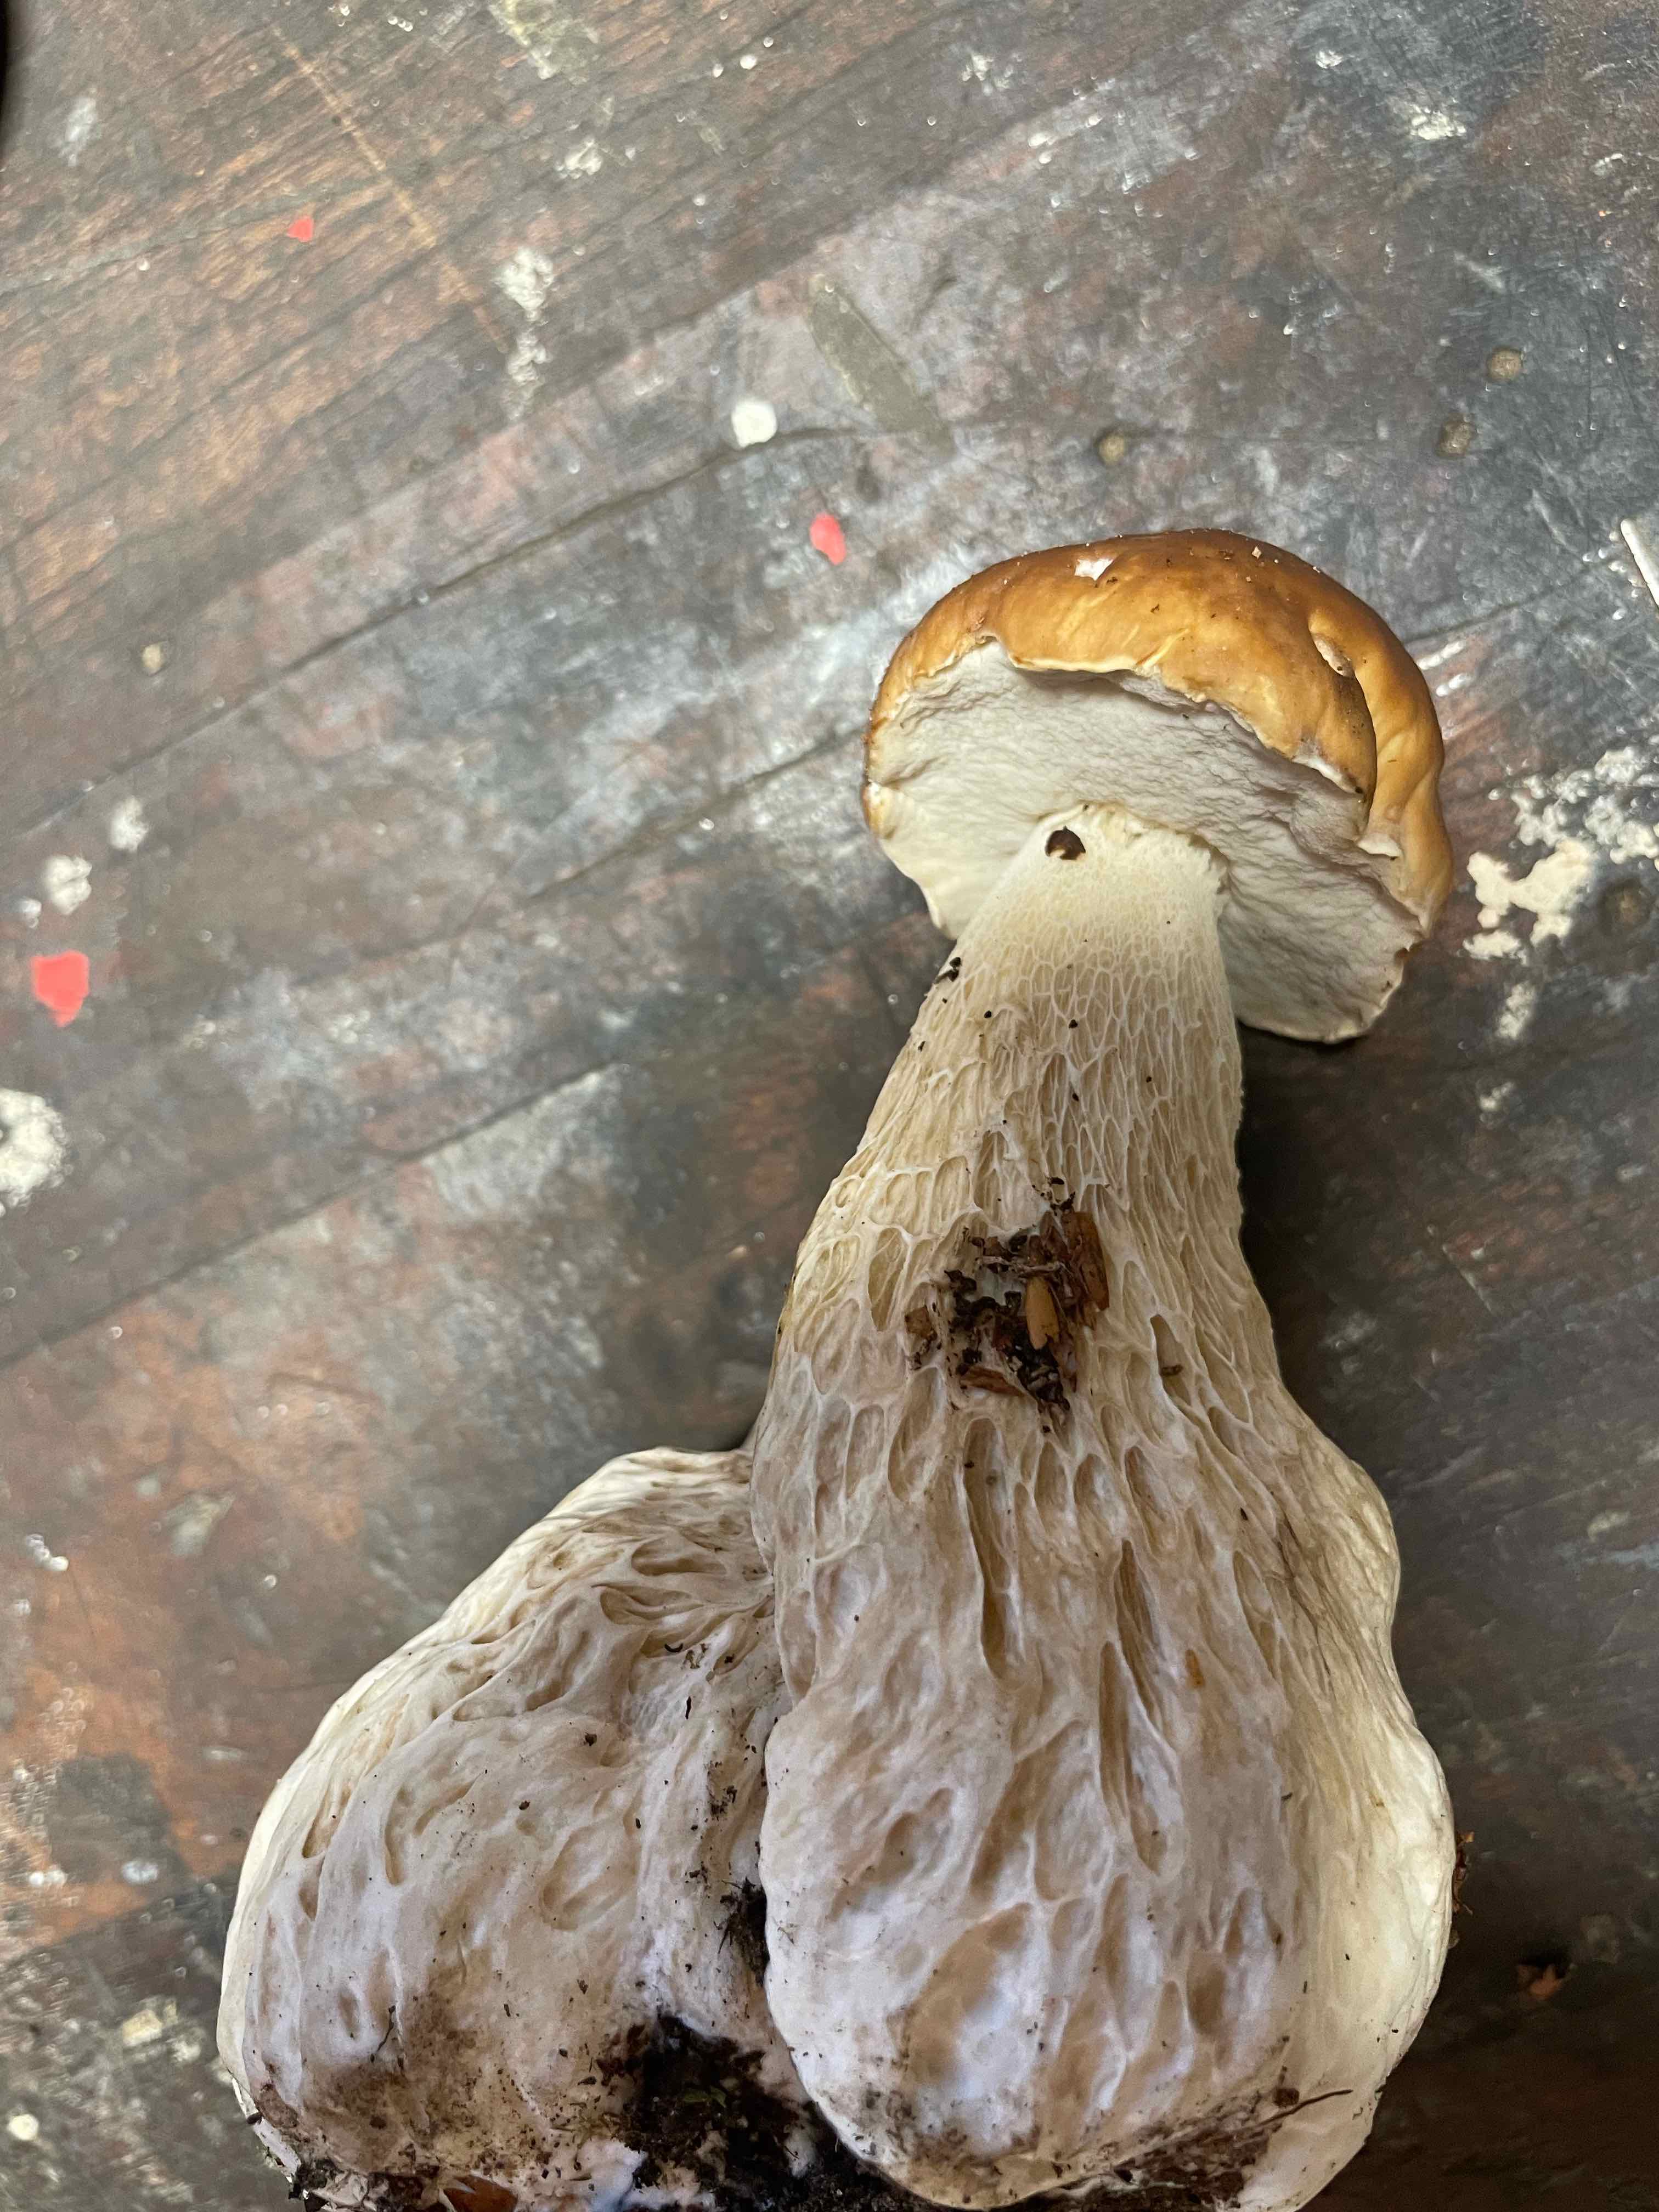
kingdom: Fungi
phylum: Basidiomycota
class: Agaricomycetes
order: Boletales
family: Boletaceae
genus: Boletus
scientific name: Boletus edulis
